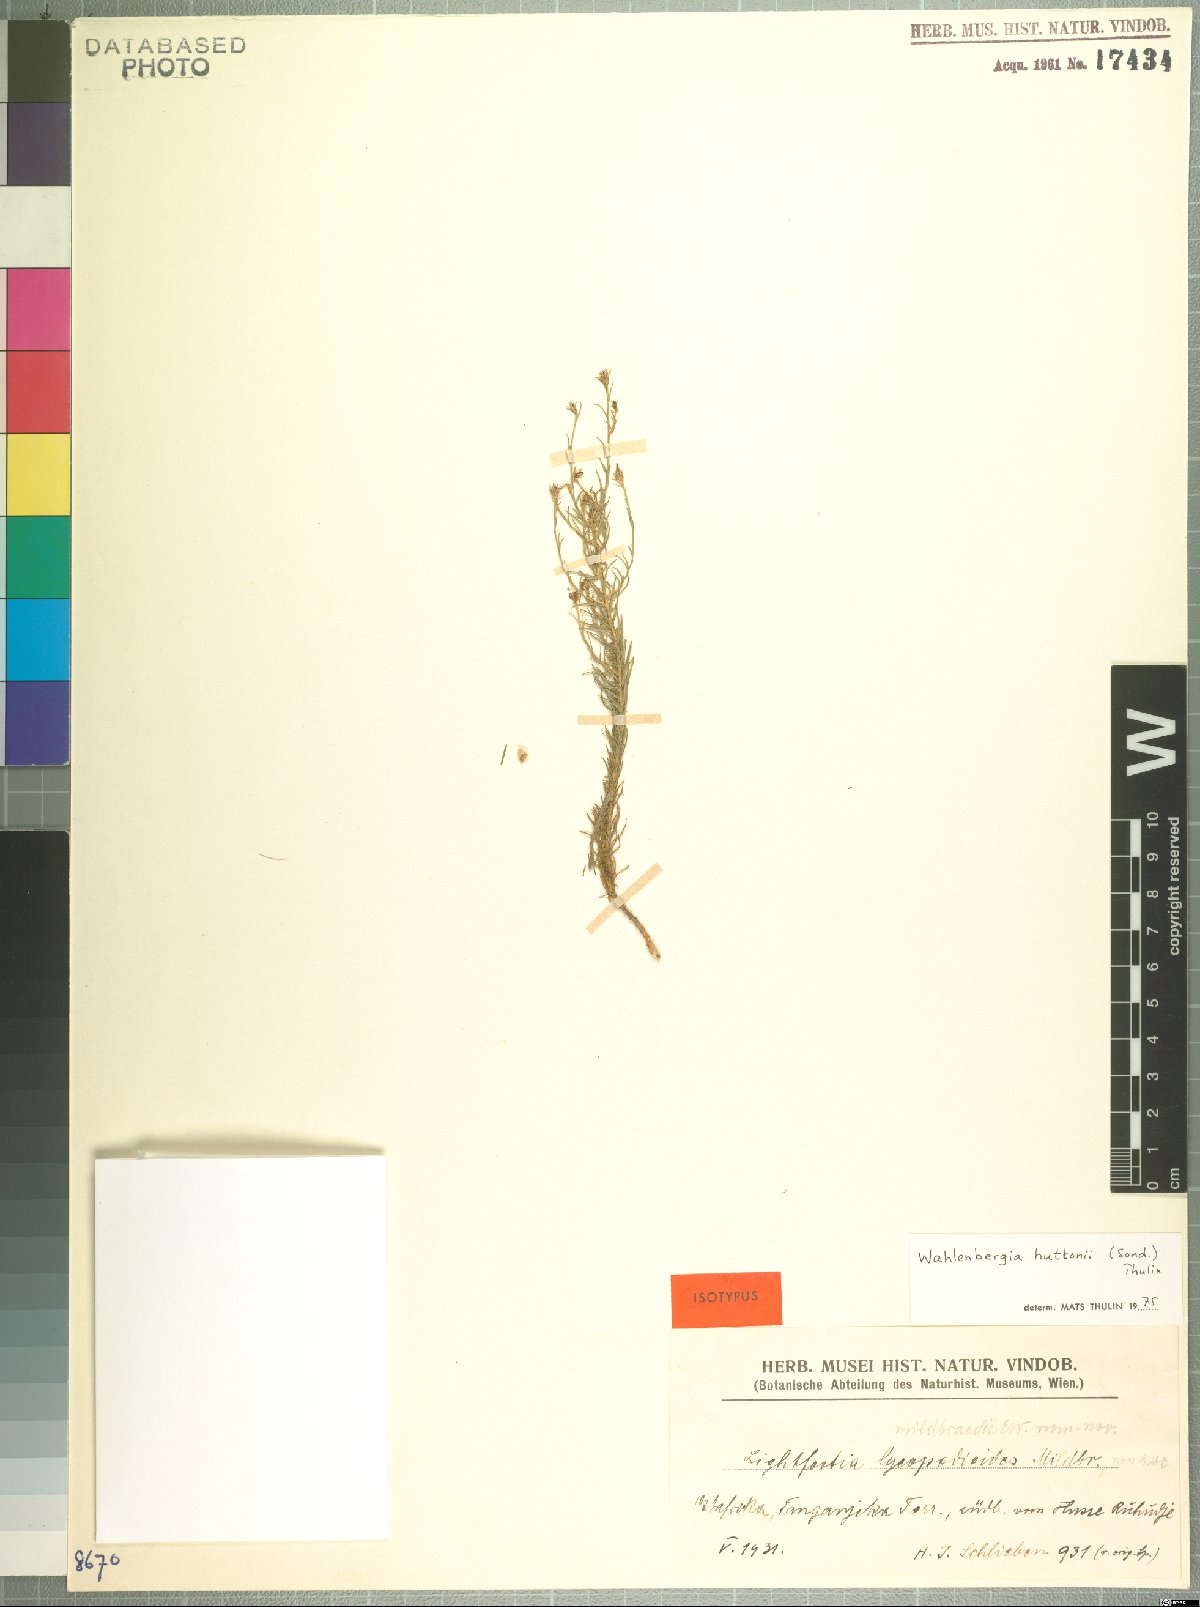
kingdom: Plantae
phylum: Tracheophyta
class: Magnoliopsida
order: Asterales
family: Campanulaceae
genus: Wahlenbergia
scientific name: Wahlenbergia huttonii
